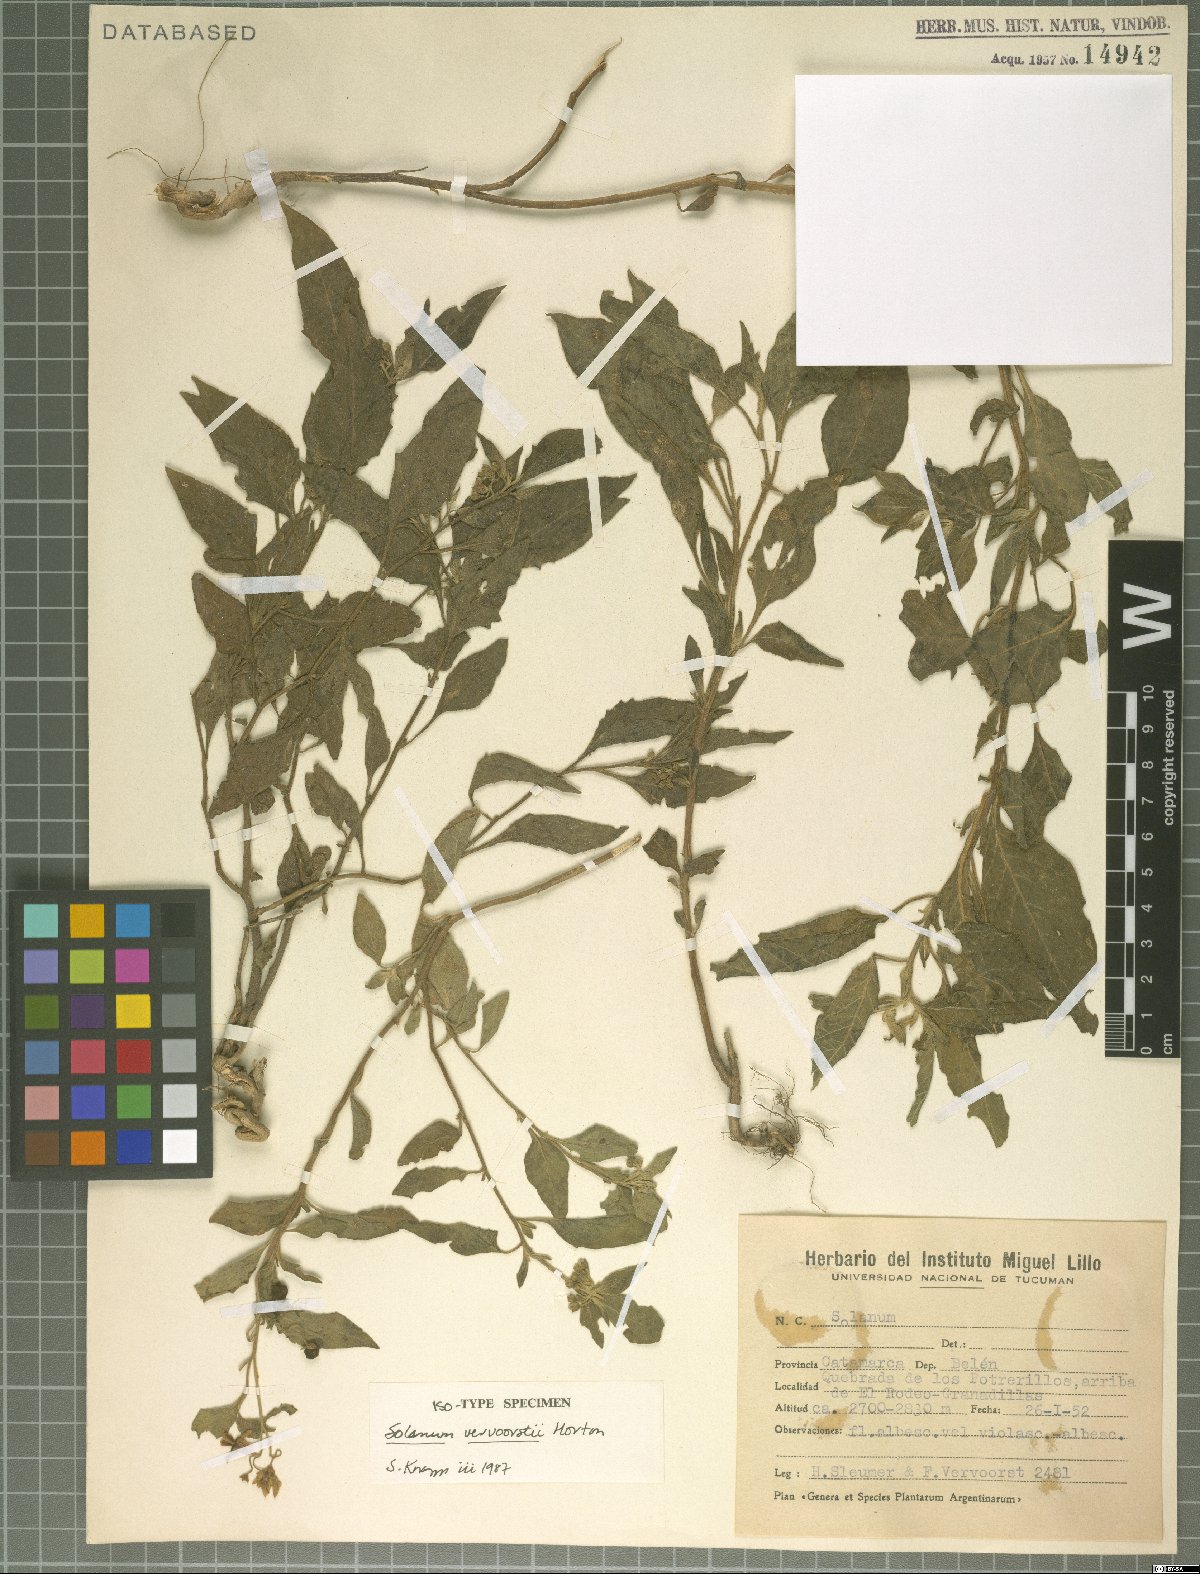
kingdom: Plantae
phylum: Tracheophyta
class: Magnoliopsida
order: Solanales
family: Solanaceae
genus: Solanum
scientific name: Solanum salicifolium
